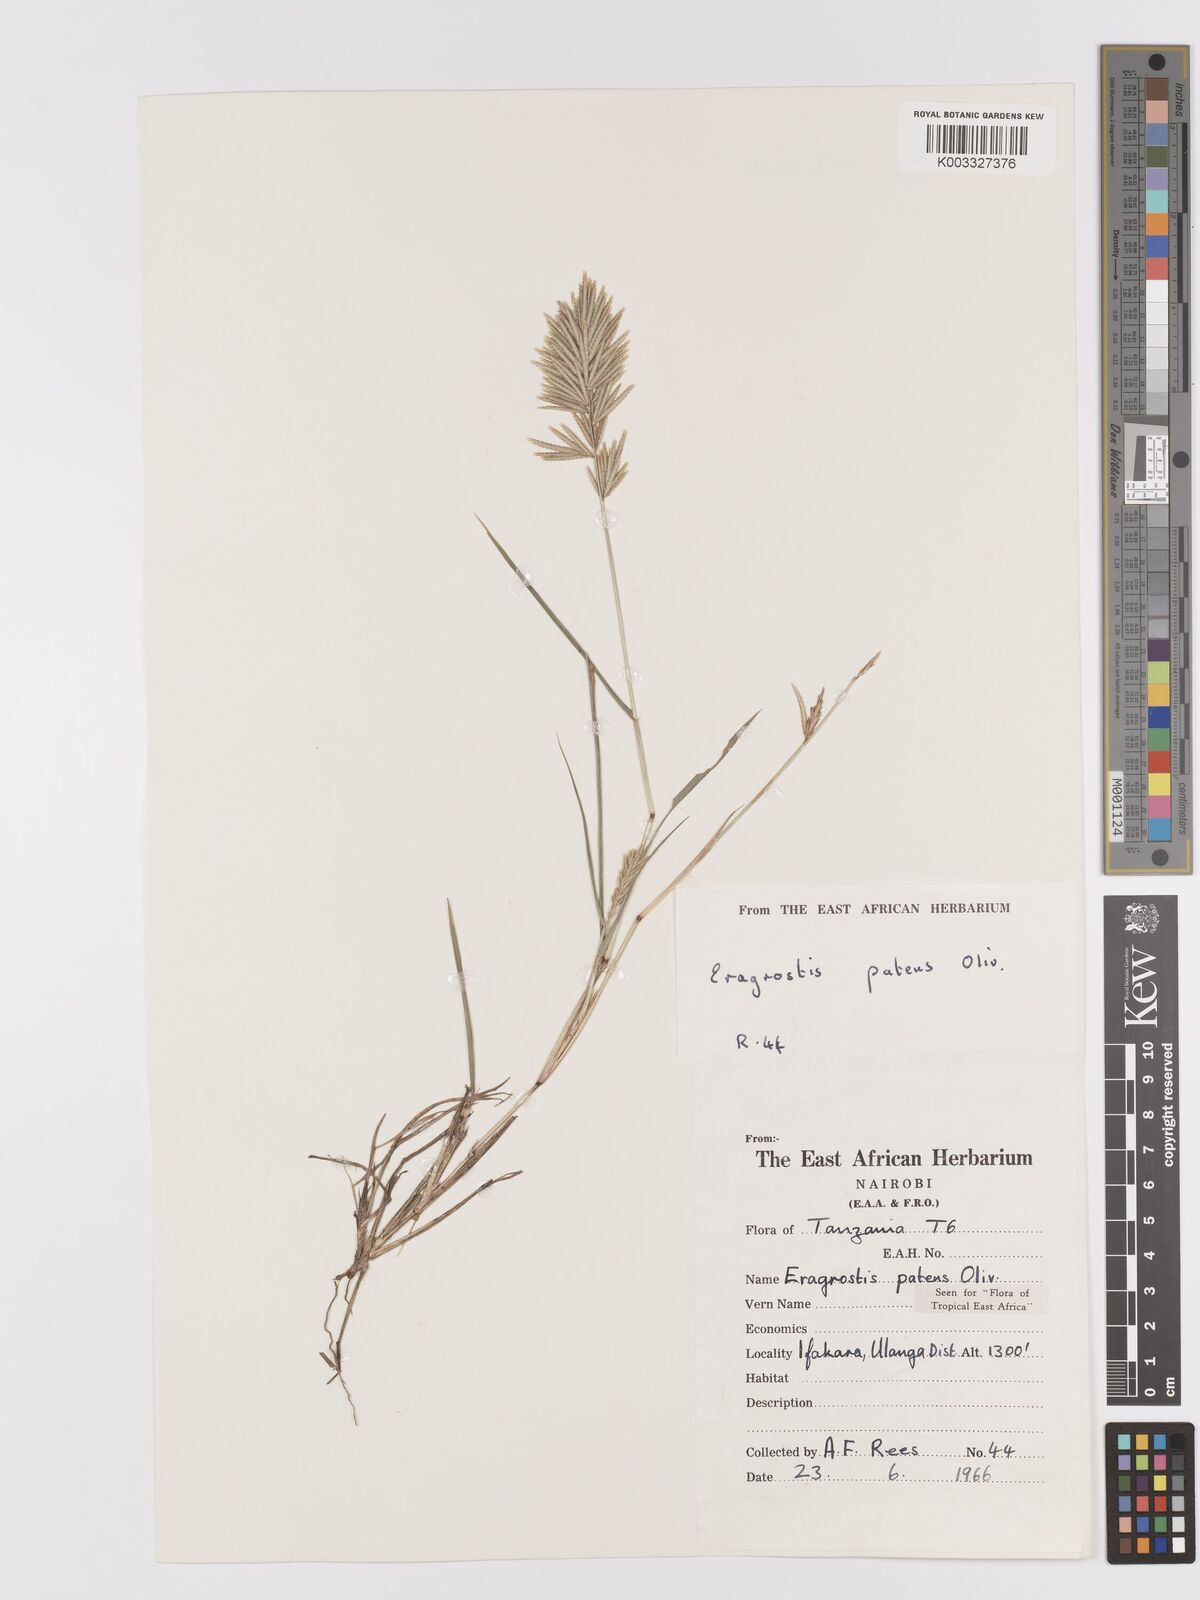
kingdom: Plantae
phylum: Tracheophyta
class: Liliopsida
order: Poales
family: Poaceae
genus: Eragrostis
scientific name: Eragrostis patens
